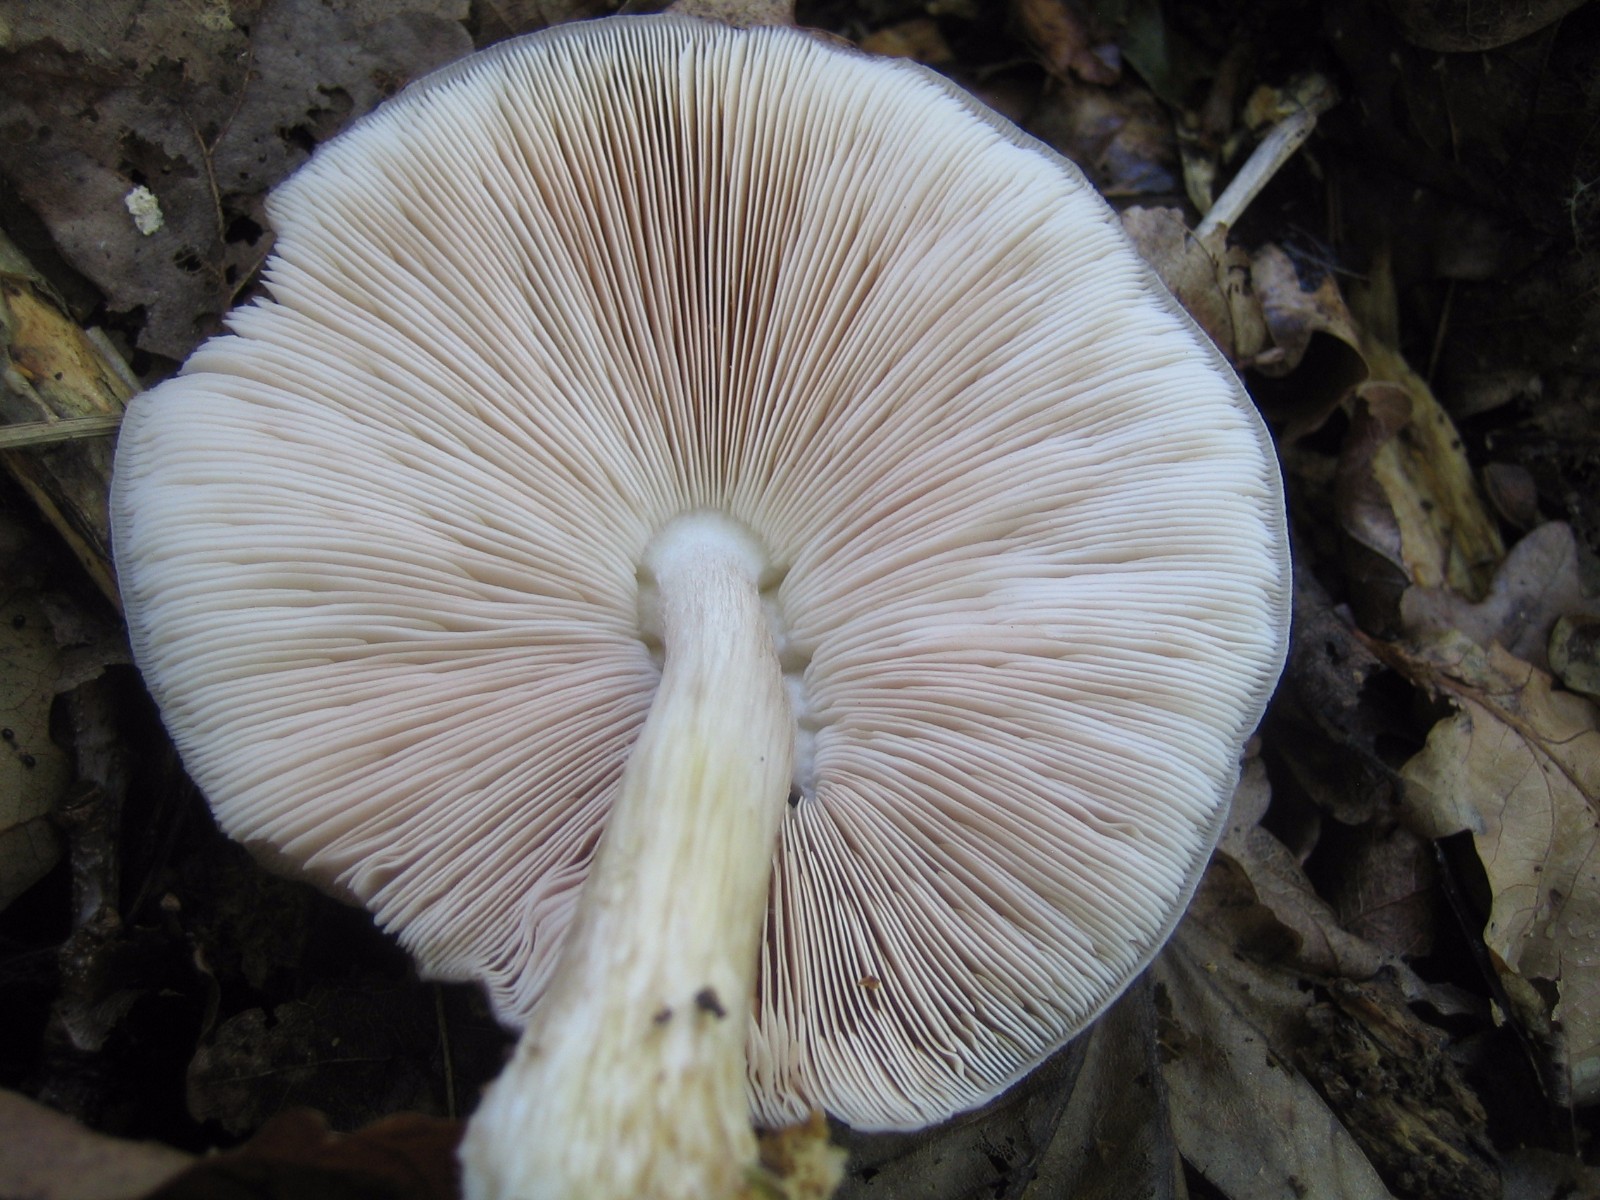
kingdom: Fungi
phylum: Basidiomycota
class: Agaricomycetes
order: Agaricales
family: Pluteaceae
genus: Pluteus
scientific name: Pluteus cervinus
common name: sodfarvet skærmhat
